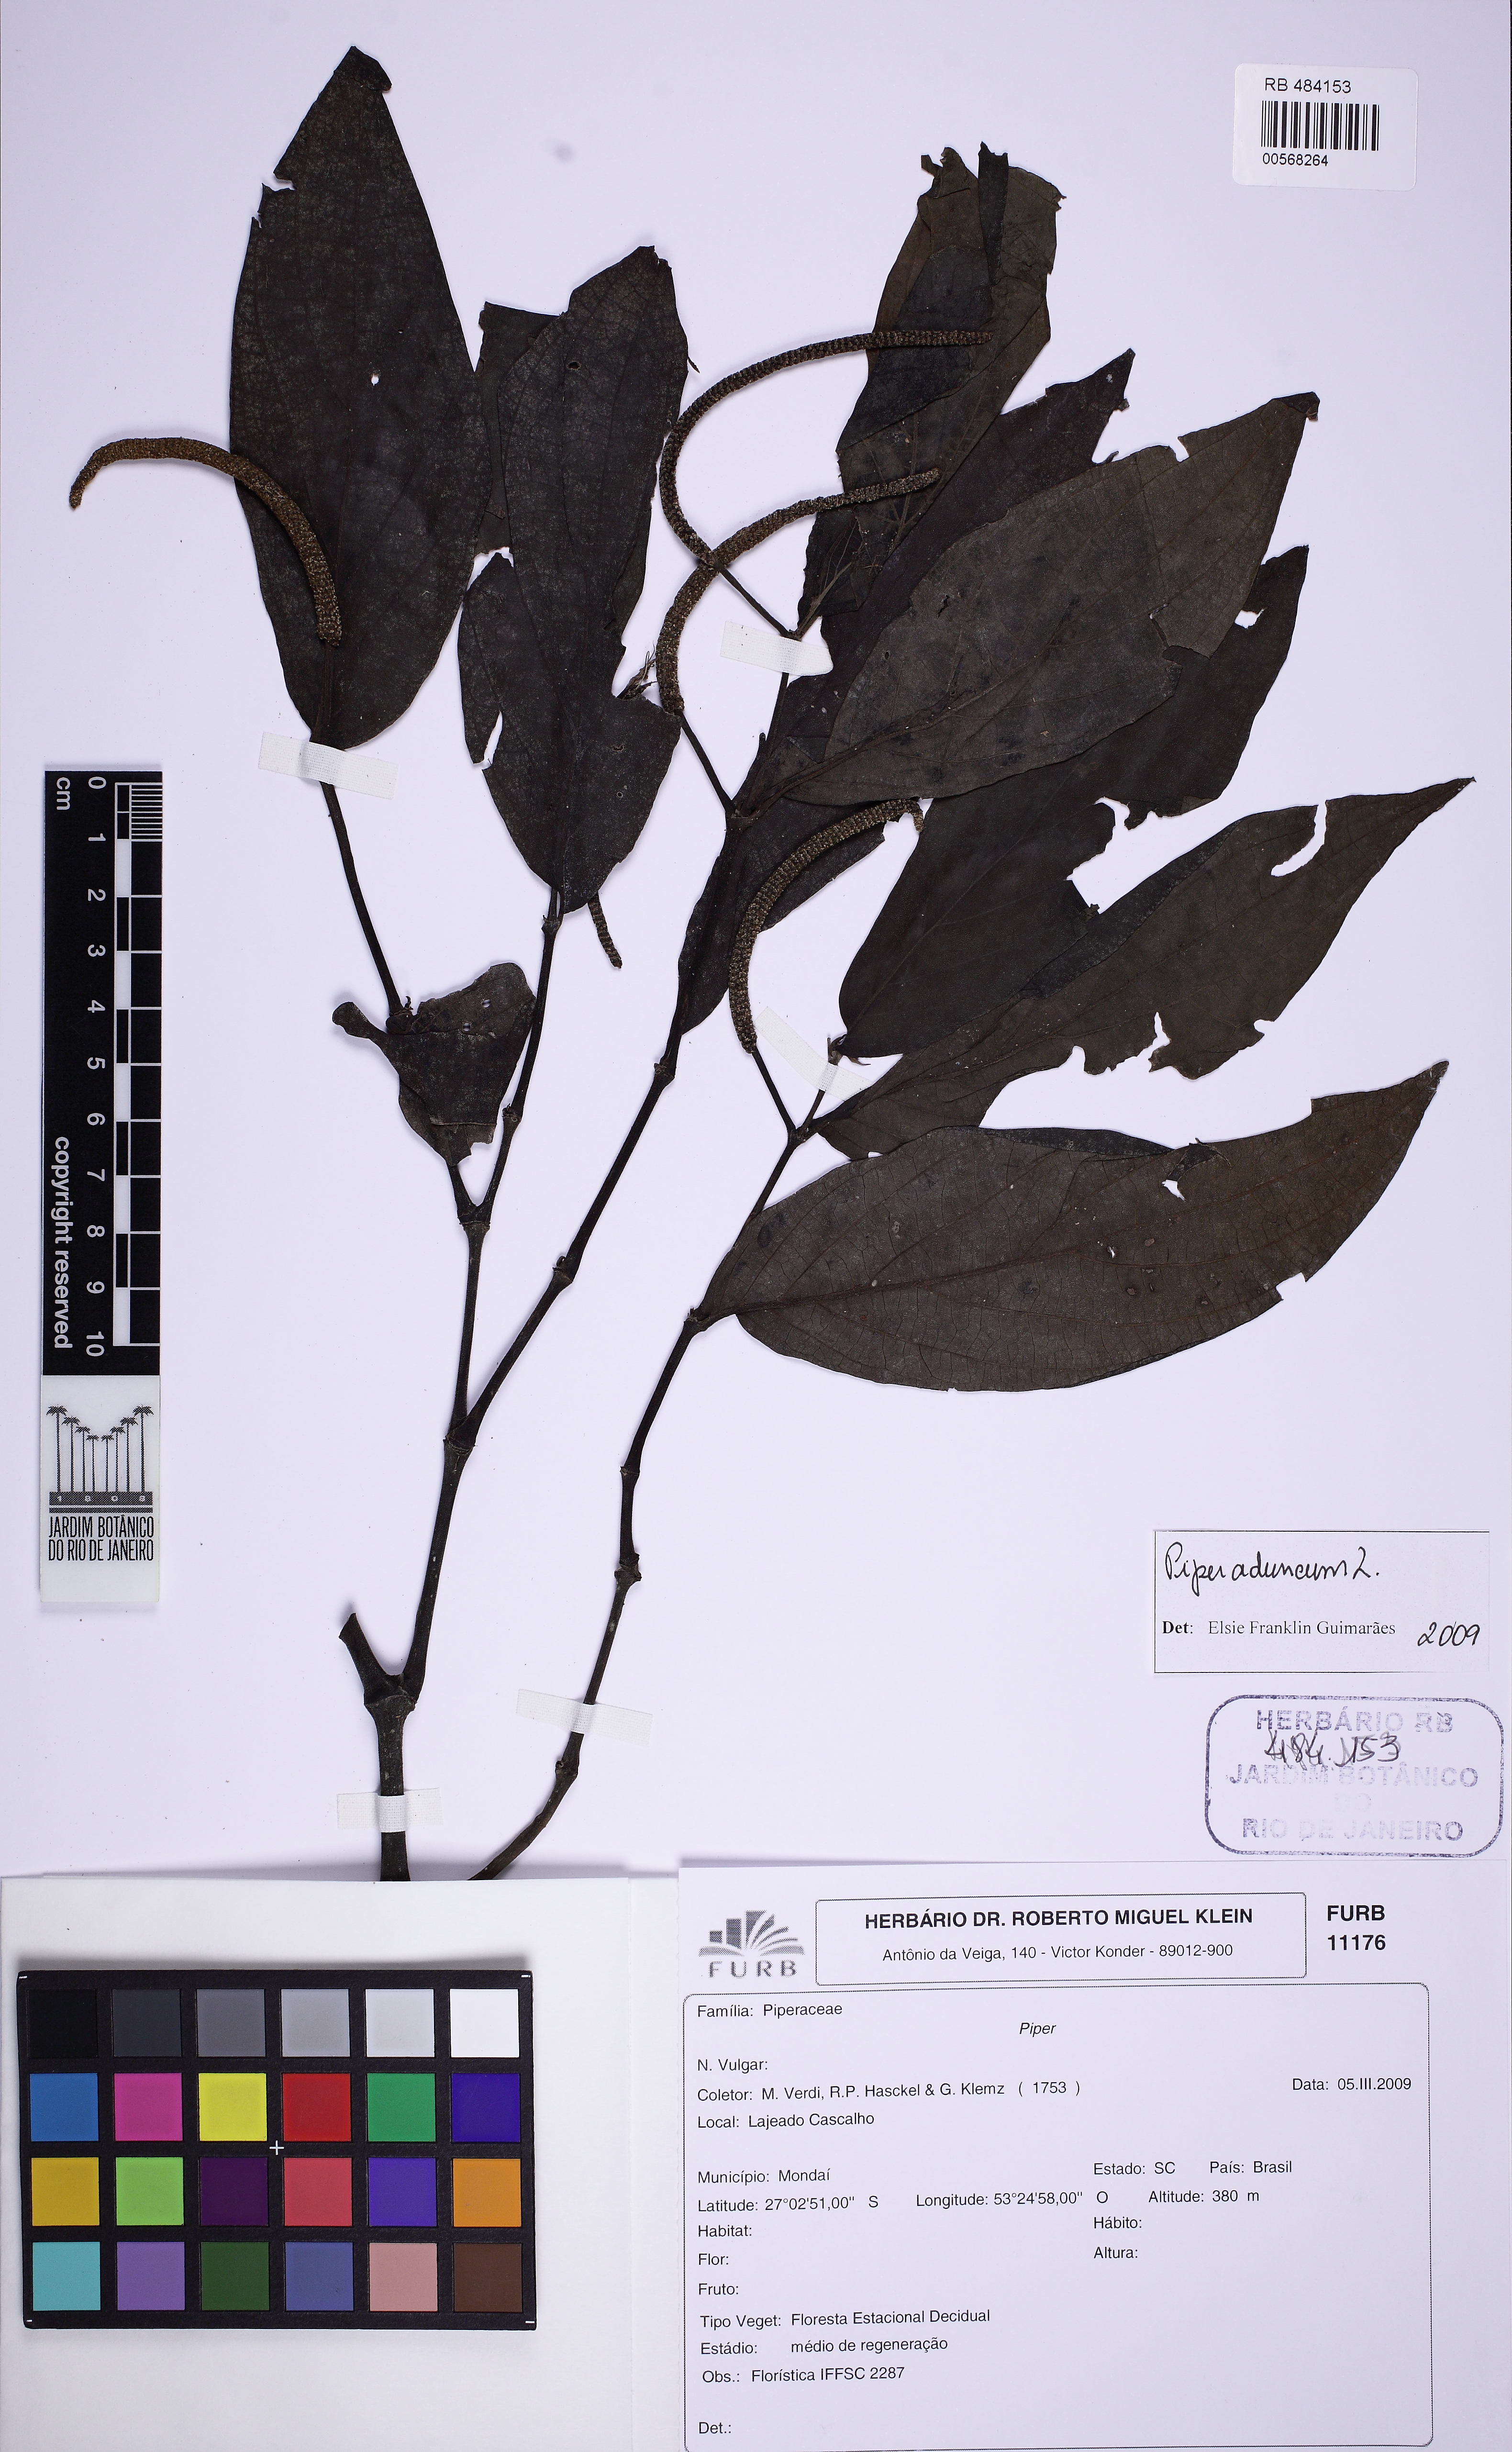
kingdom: Plantae
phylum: Tracheophyta
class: Magnoliopsida
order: Piperales
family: Piperaceae
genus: Piper
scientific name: Piper aduncum
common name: Spiked pepper
